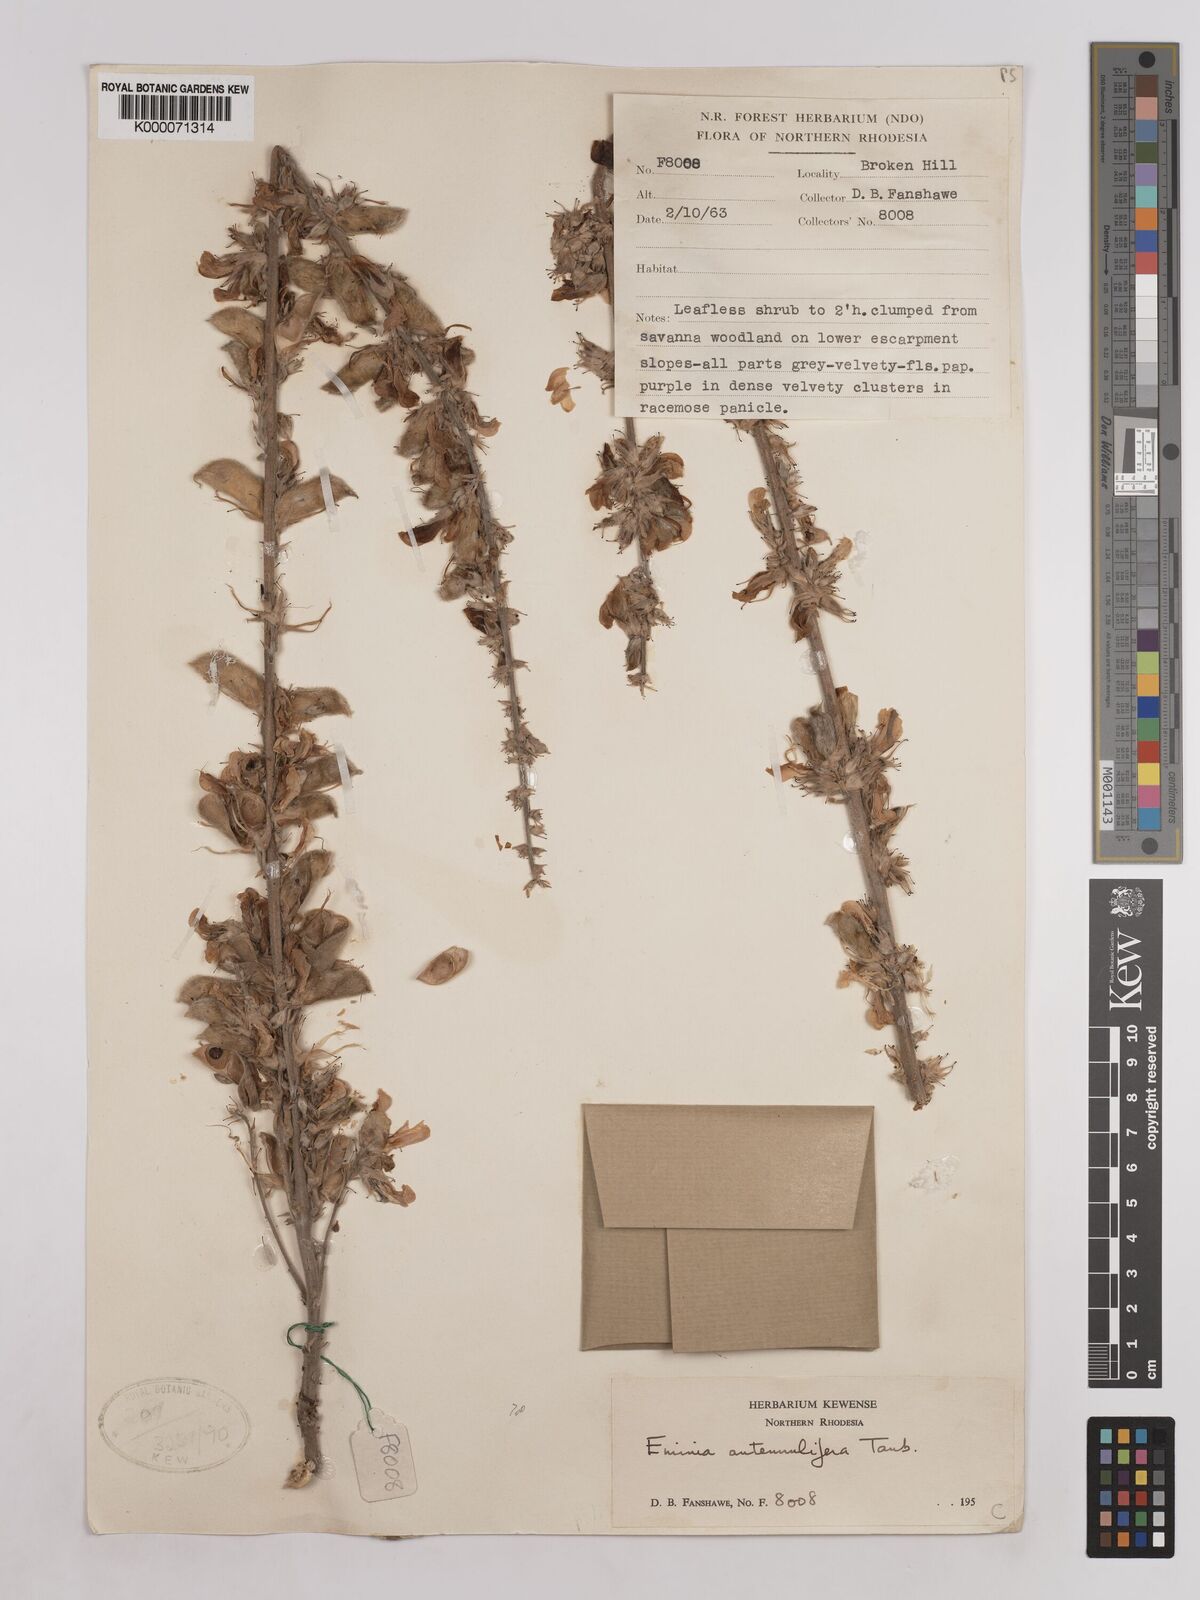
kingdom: Plantae
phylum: Tracheophyta
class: Magnoliopsida
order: Fabales
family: Fabaceae
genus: Eminia
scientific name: Eminia antennulifera
